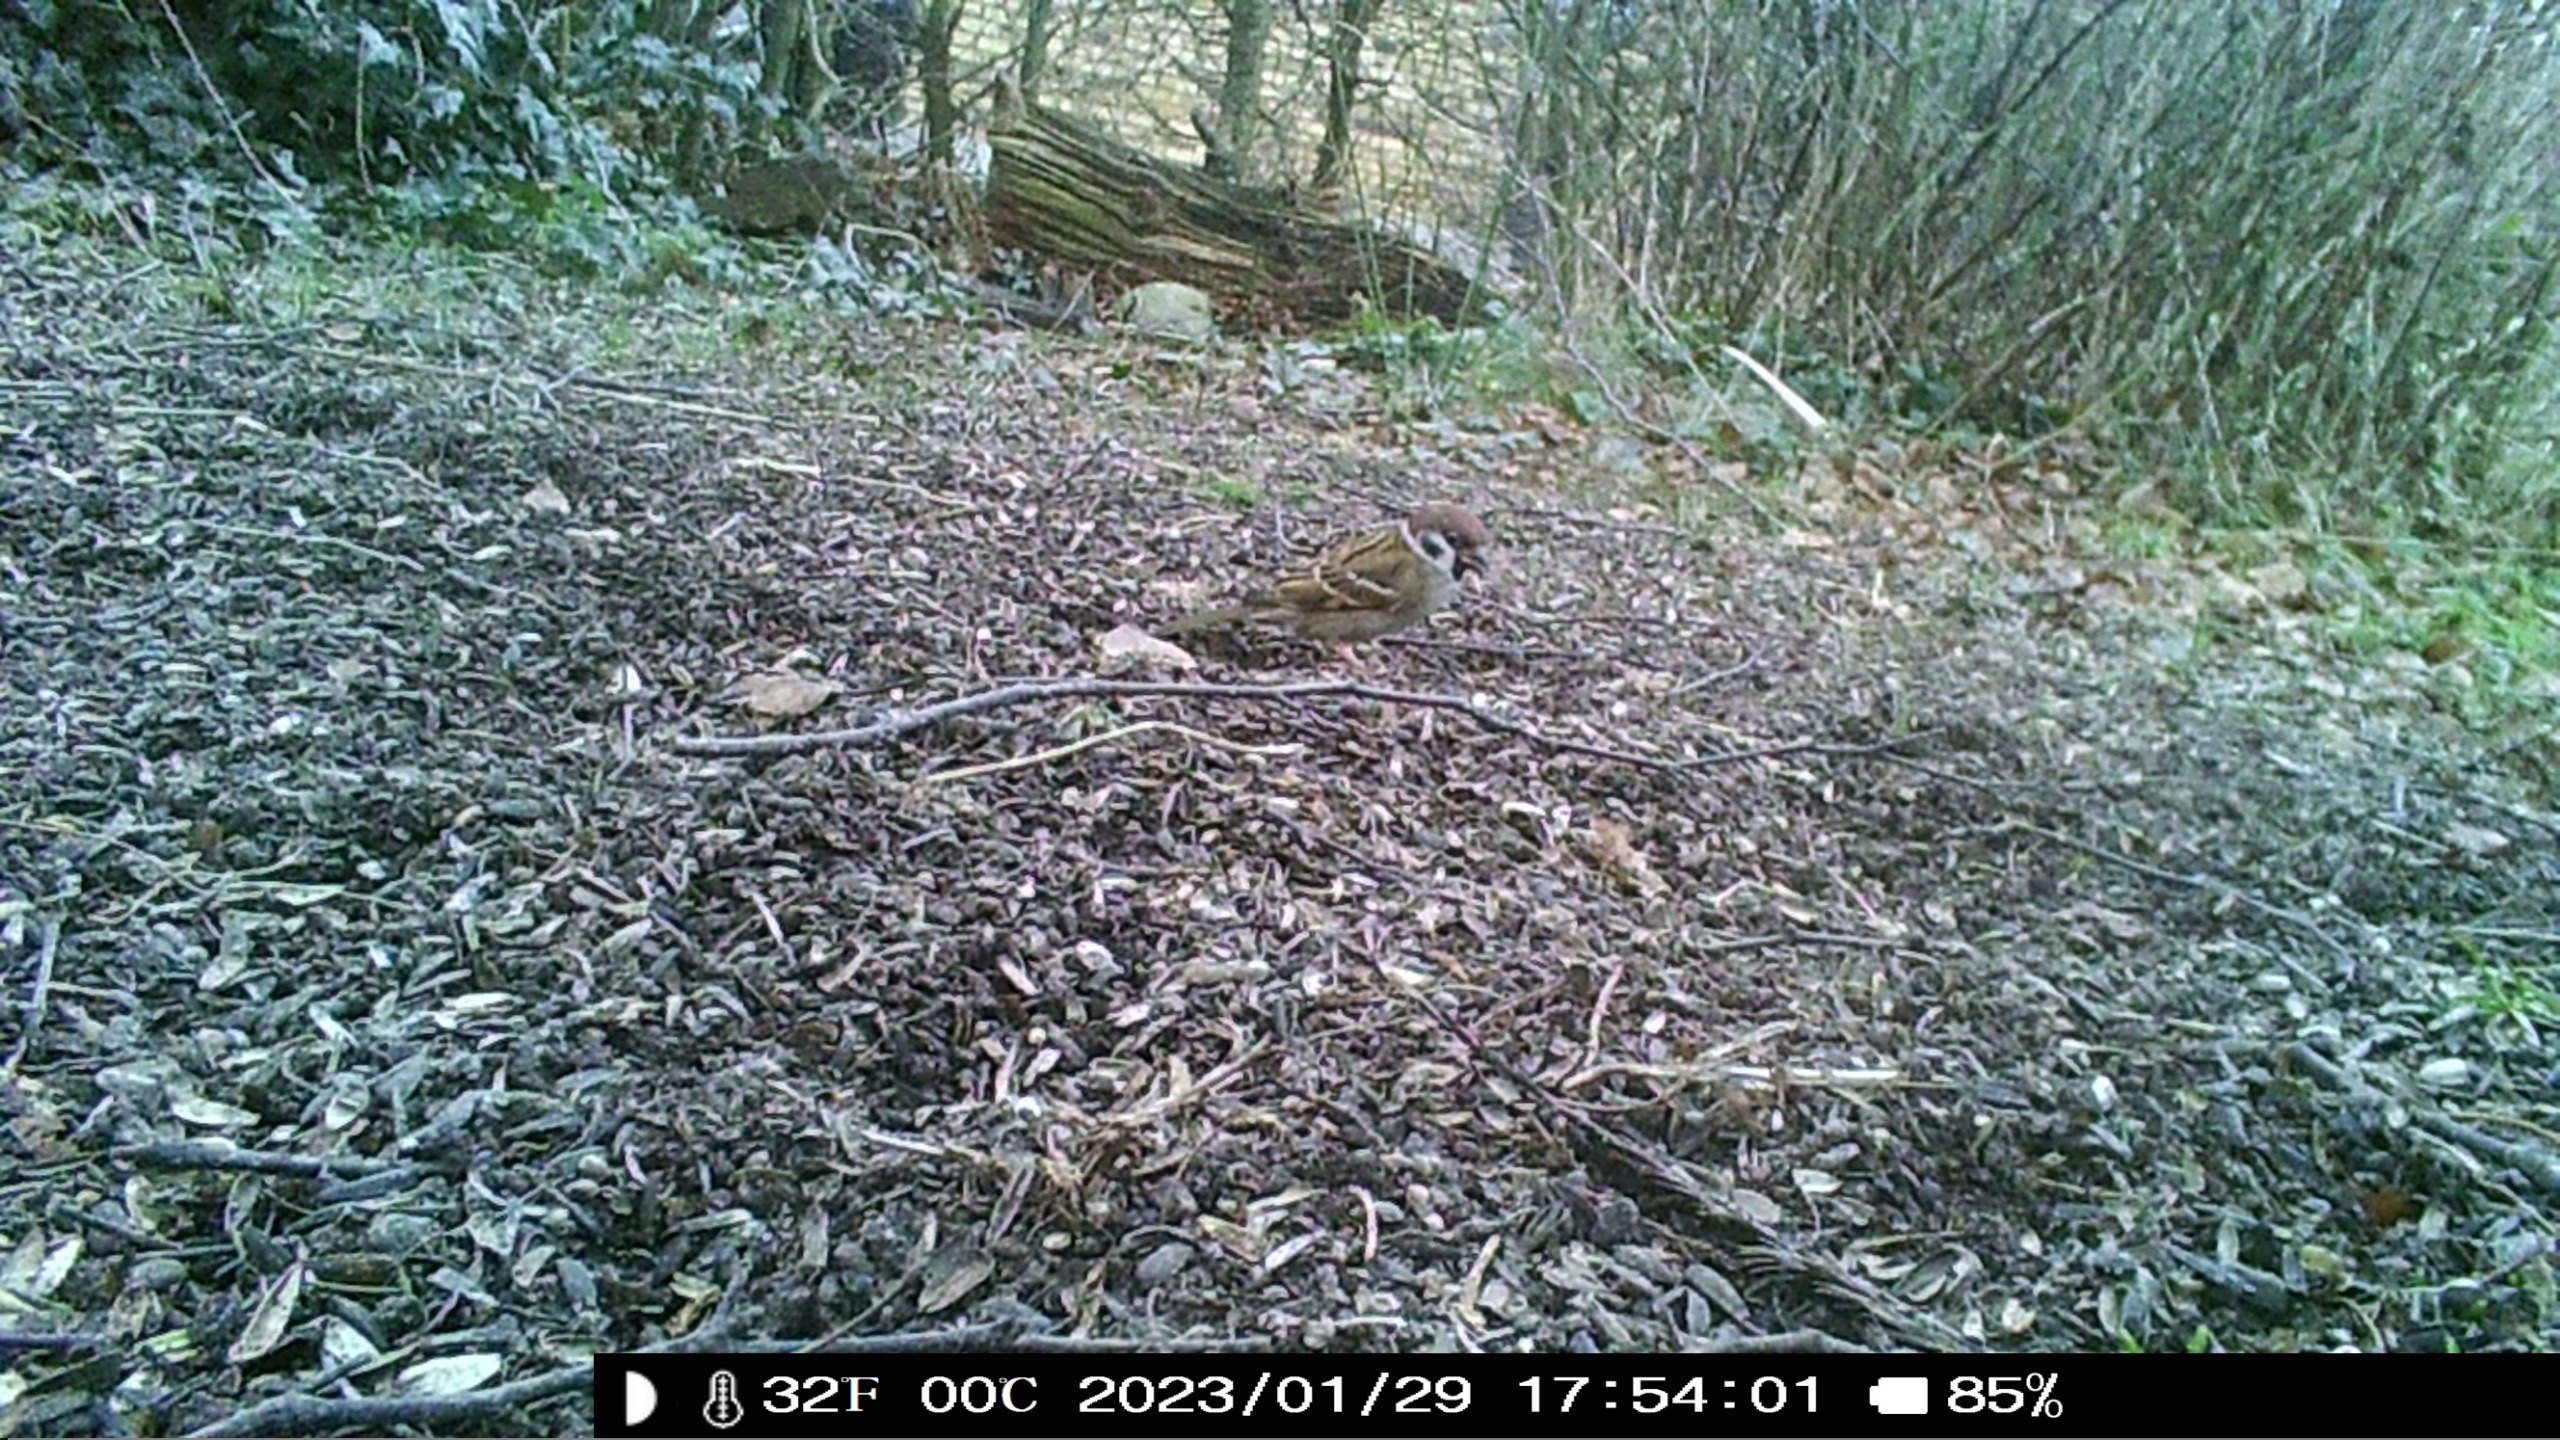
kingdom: Animalia
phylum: Chordata
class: Aves
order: Passeriformes
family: Passeridae
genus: Passer
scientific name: Passer montanus
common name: Skovspurv
